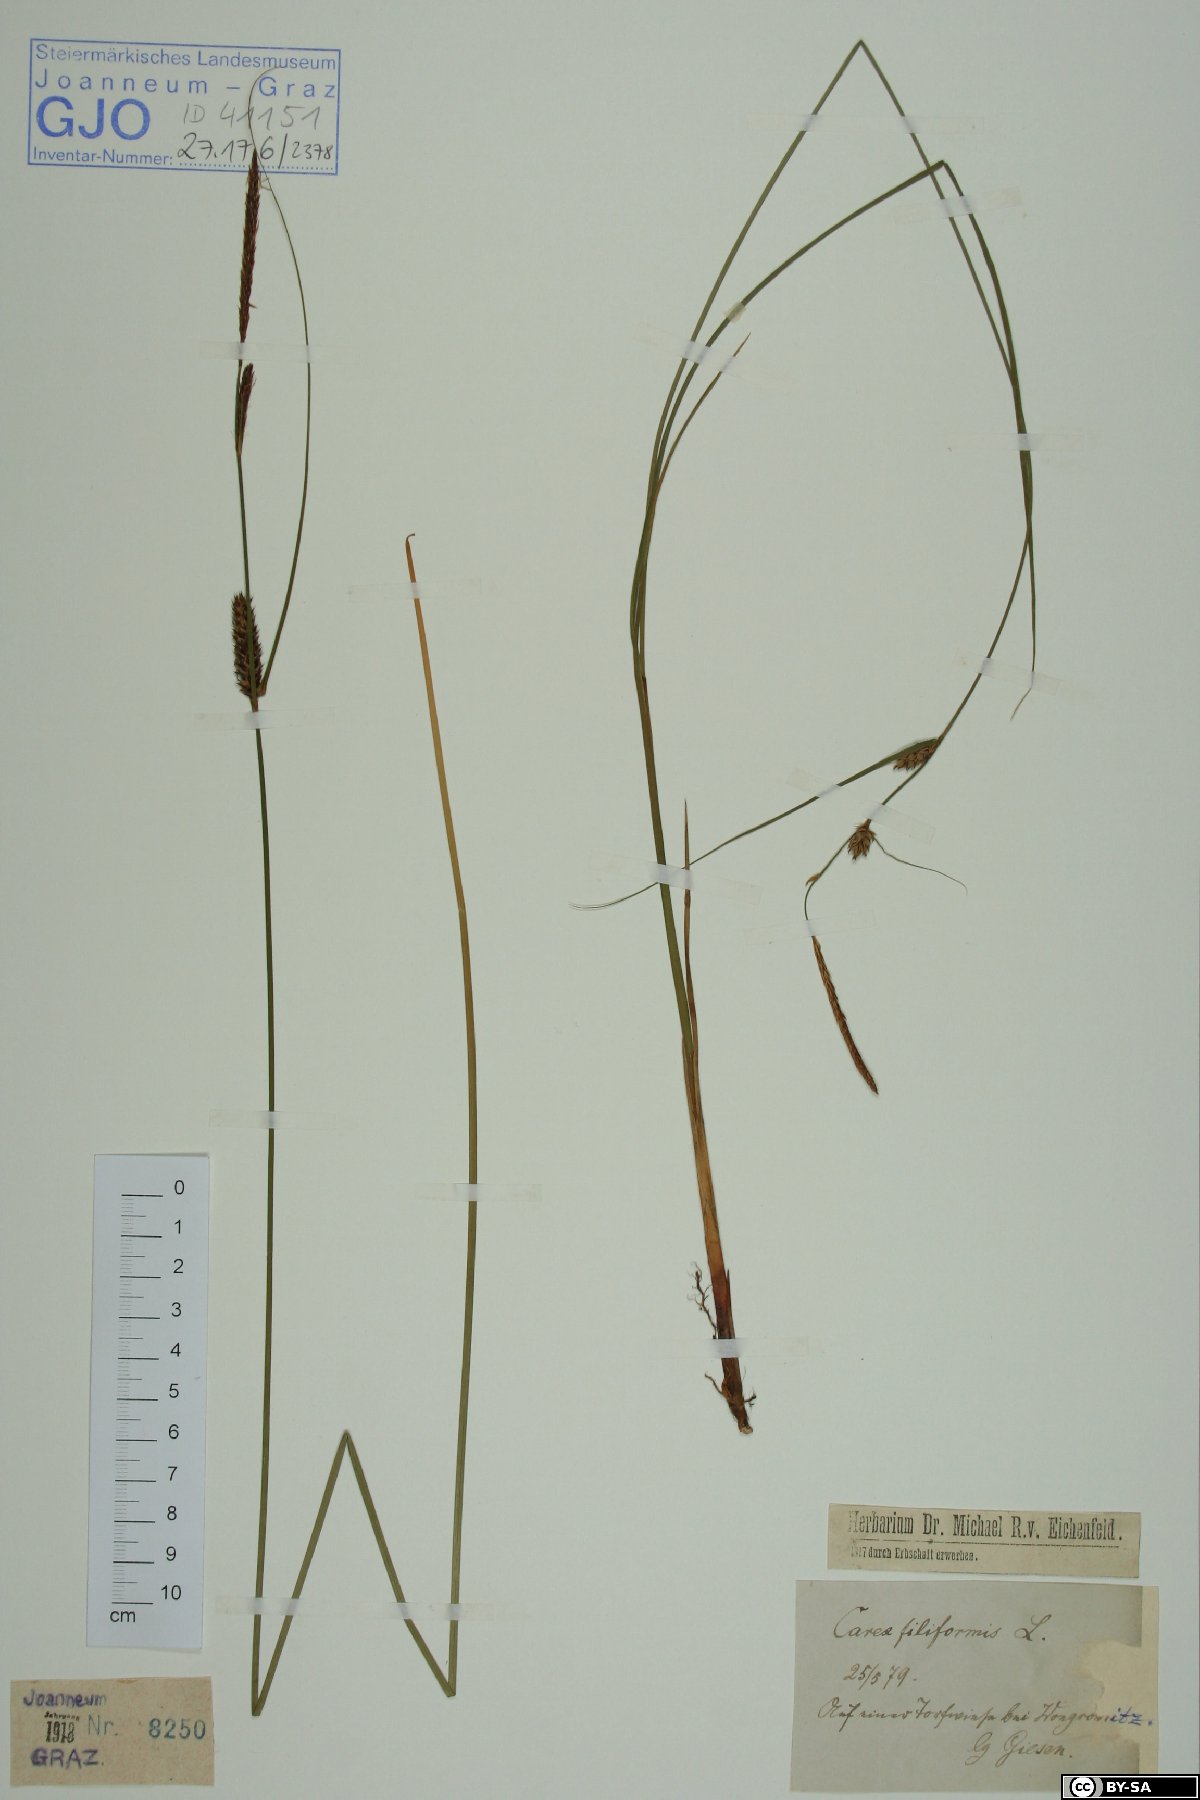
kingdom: Plantae
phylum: Tracheophyta
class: Liliopsida
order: Poales
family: Cyperaceae
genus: Carex
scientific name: Carex montana
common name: Soft-leaved sedge
